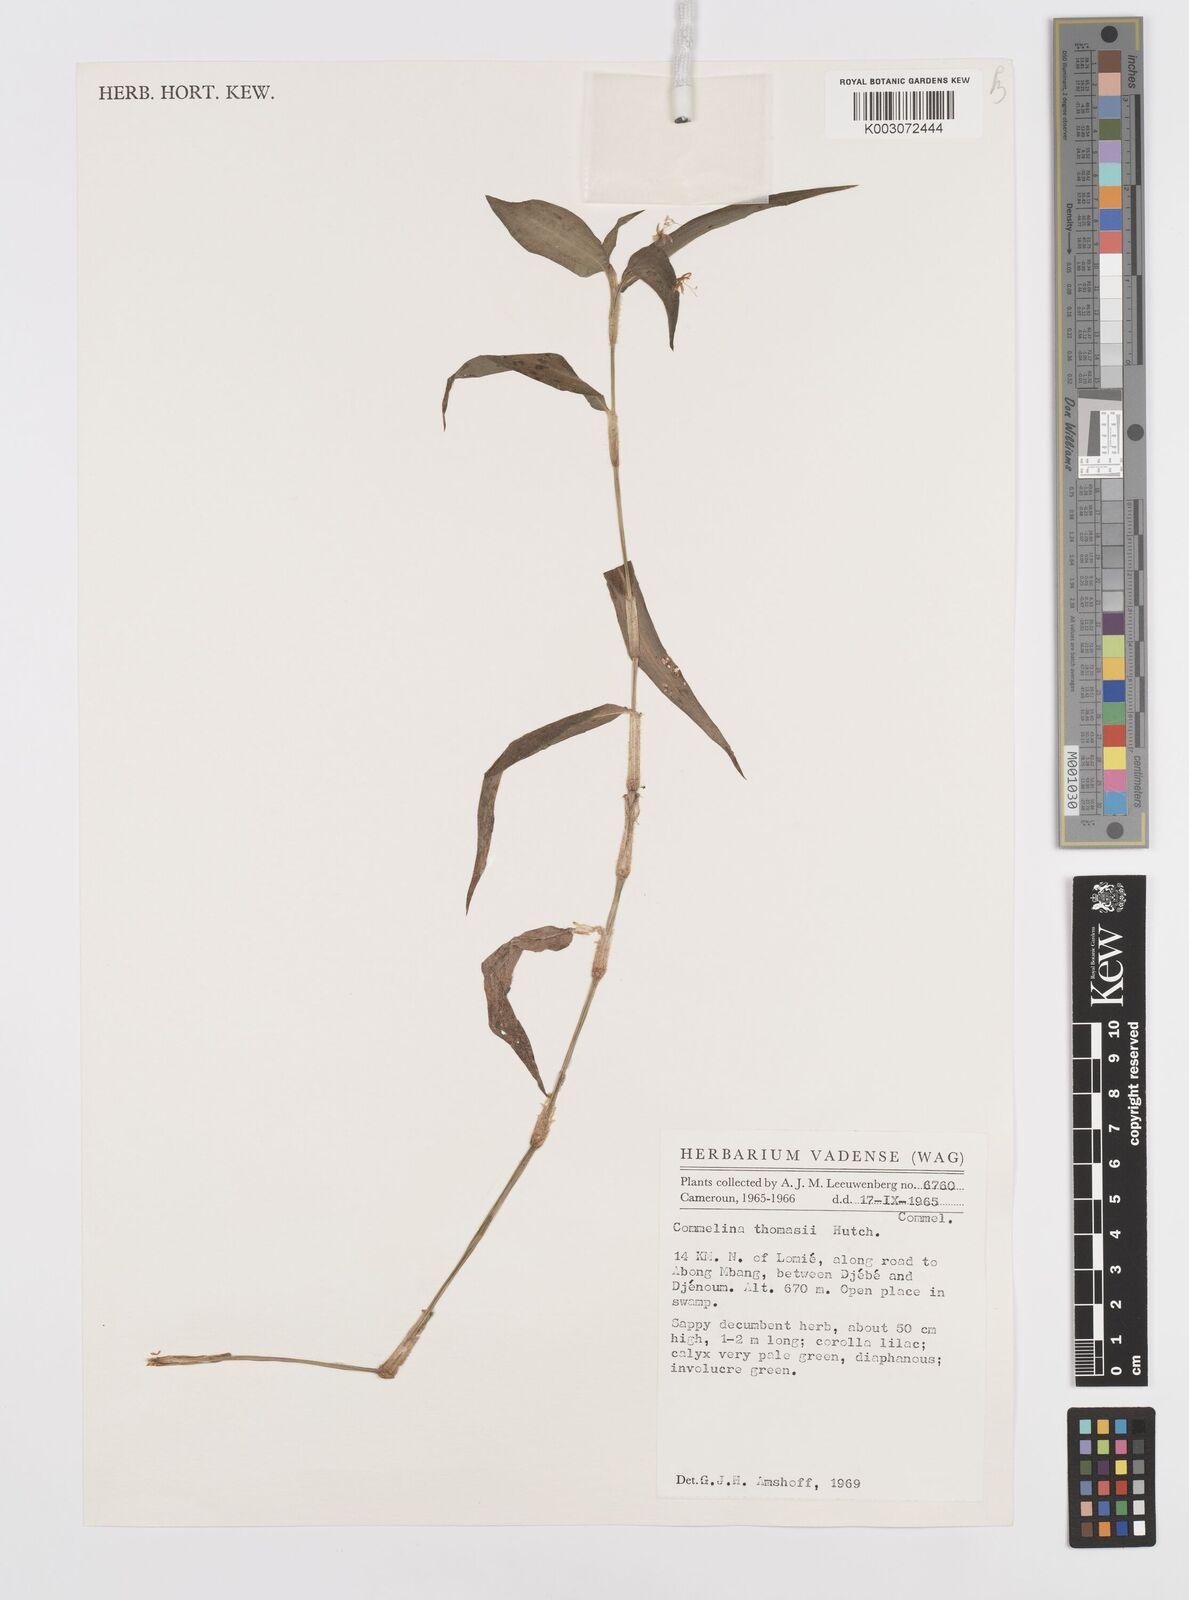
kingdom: Plantae
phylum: Tracheophyta
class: Liliopsida
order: Commelinales
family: Commelinaceae
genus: Commelina
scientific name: Commelina acutispatha
